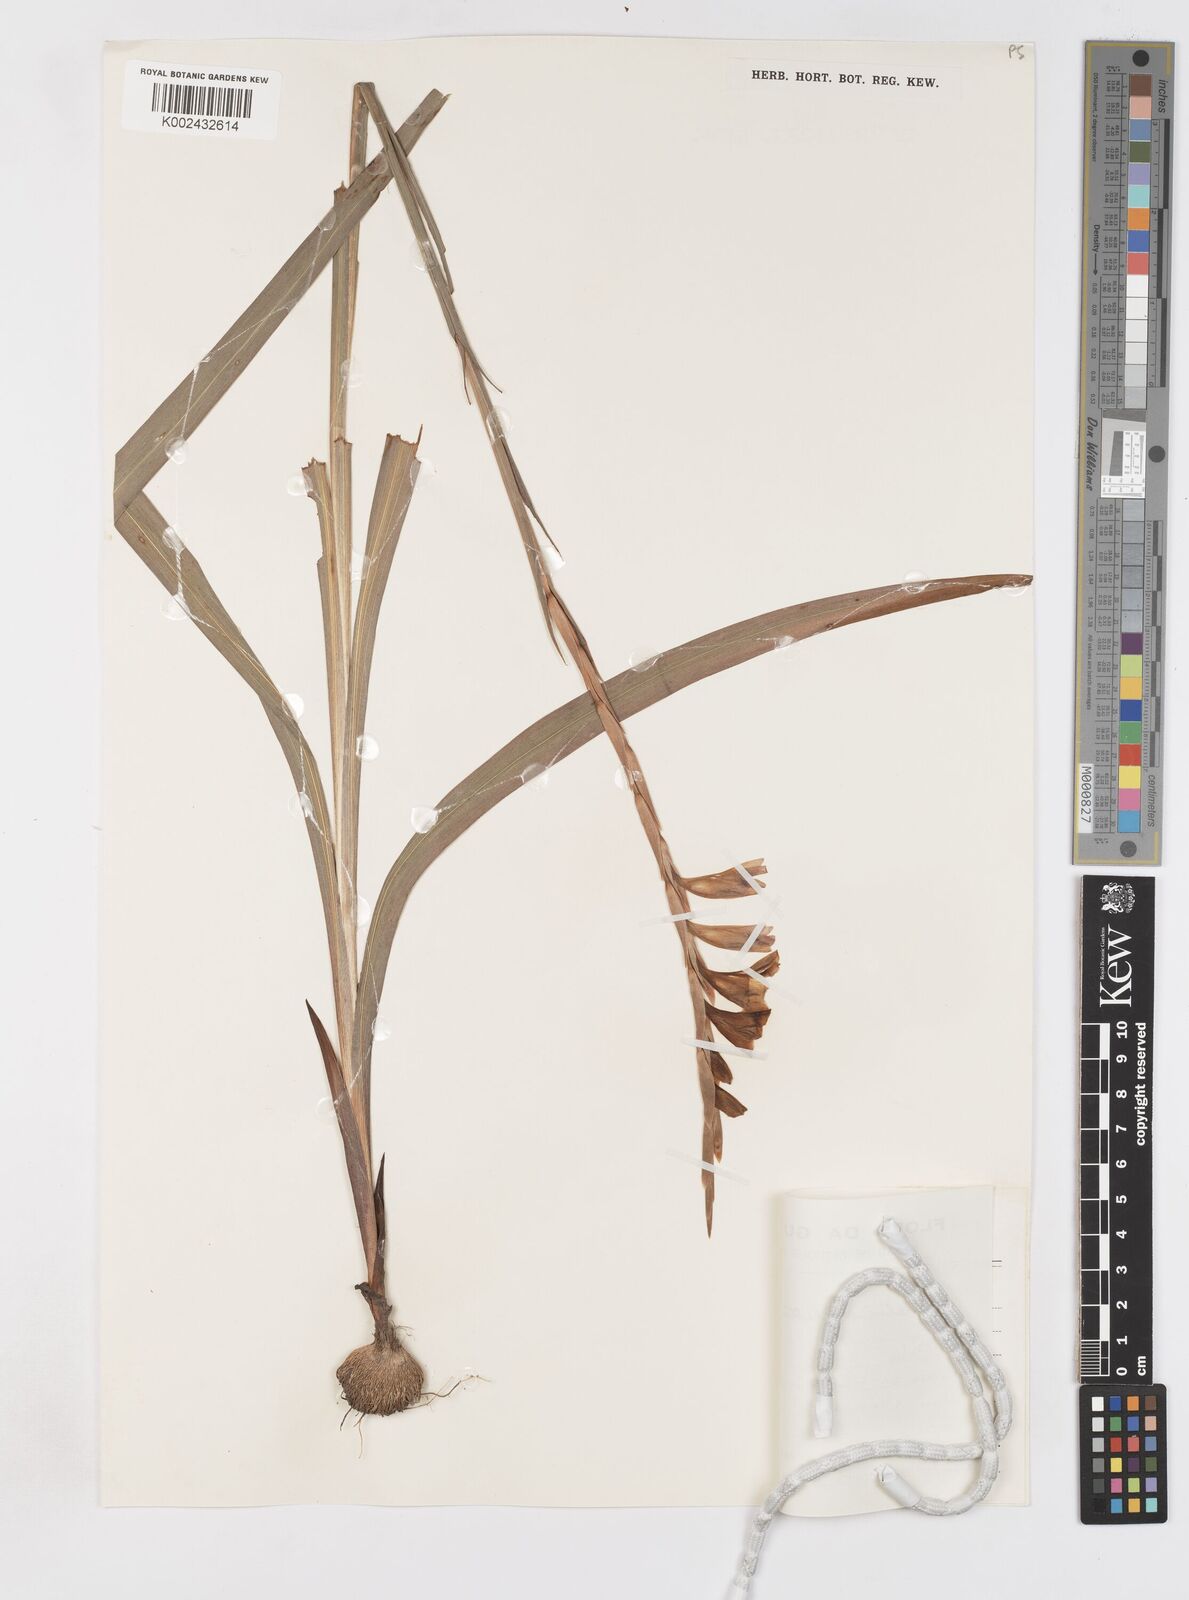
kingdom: Plantae
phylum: Tracheophyta
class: Liliopsida
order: Asparagales
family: Iridaceae
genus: Gladiolus
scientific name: Gladiolus gregarius
